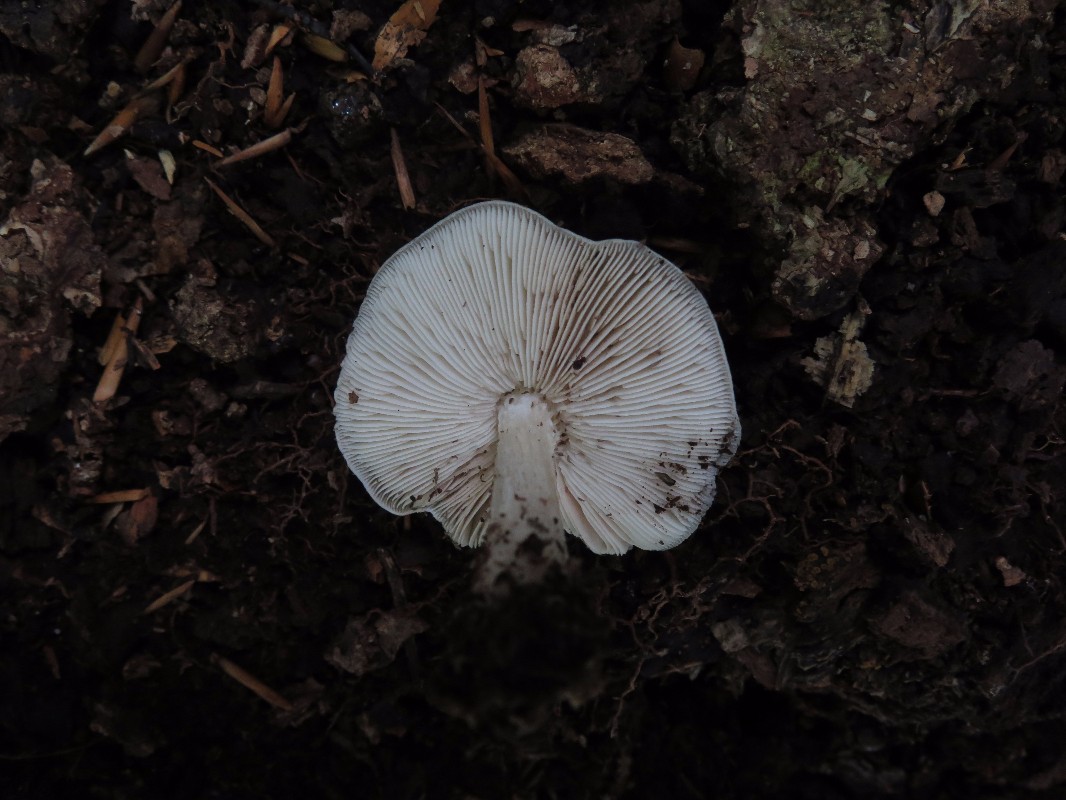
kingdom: Fungi
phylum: Basidiomycota
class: Agaricomycetes
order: Agaricales
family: Pluteaceae
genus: Pluteus
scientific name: Pluteus cervinus
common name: sodfarvet skærmhat
